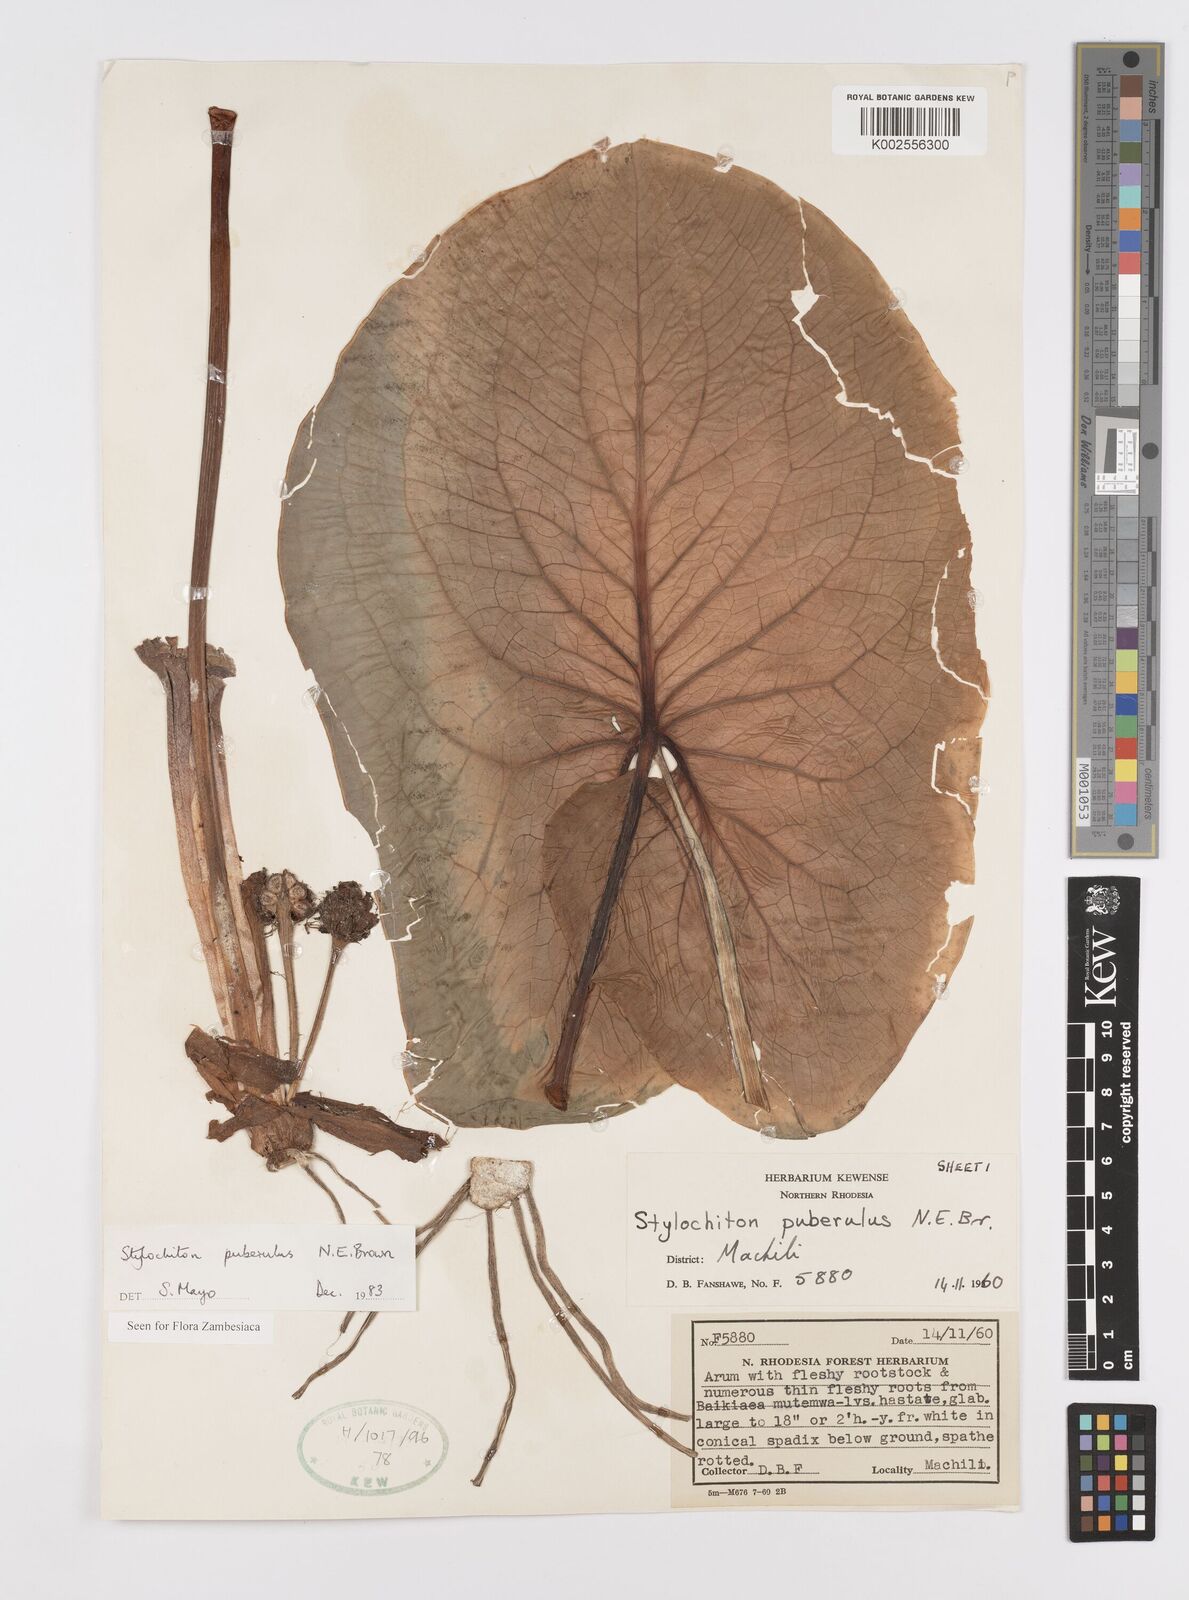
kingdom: Plantae
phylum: Tracheophyta
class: Liliopsida
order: Alismatales
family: Araceae
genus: Stylochaeton
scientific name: Stylochaeton puberulum
